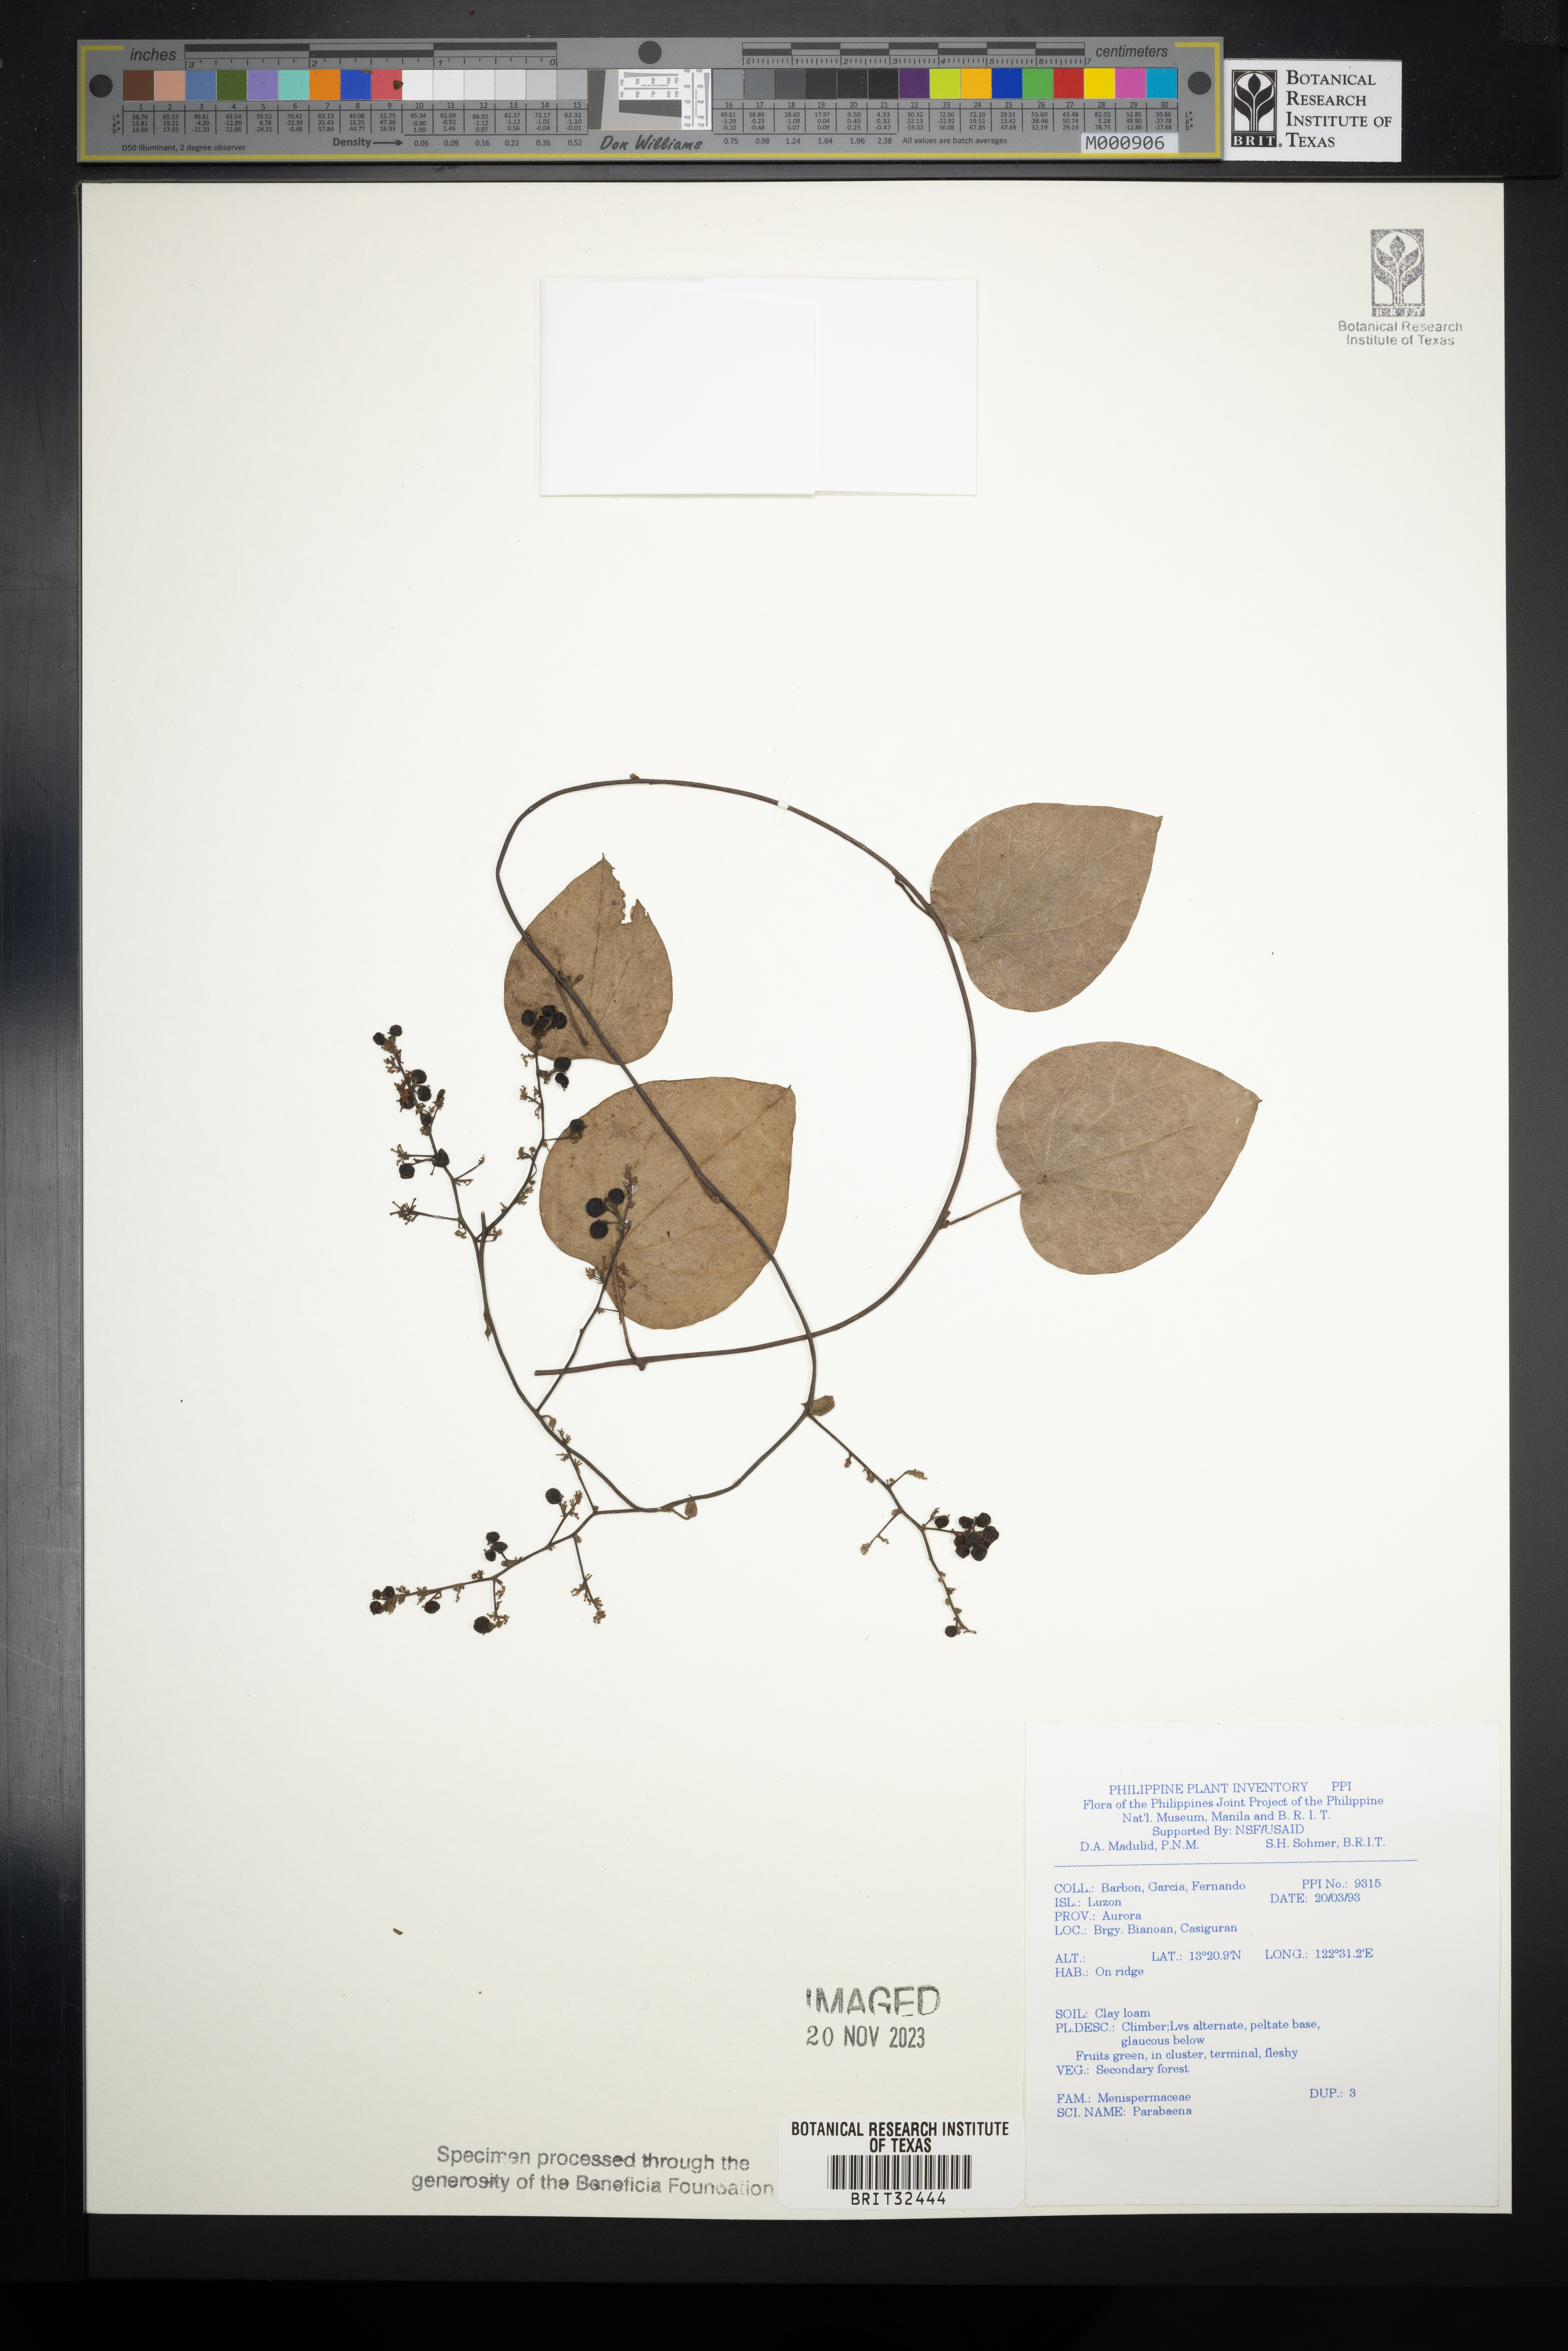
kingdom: Plantae
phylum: Tracheophyta
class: Magnoliopsida
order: Ranunculales
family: Menispermaceae
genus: Parabaena
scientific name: Parabaena
